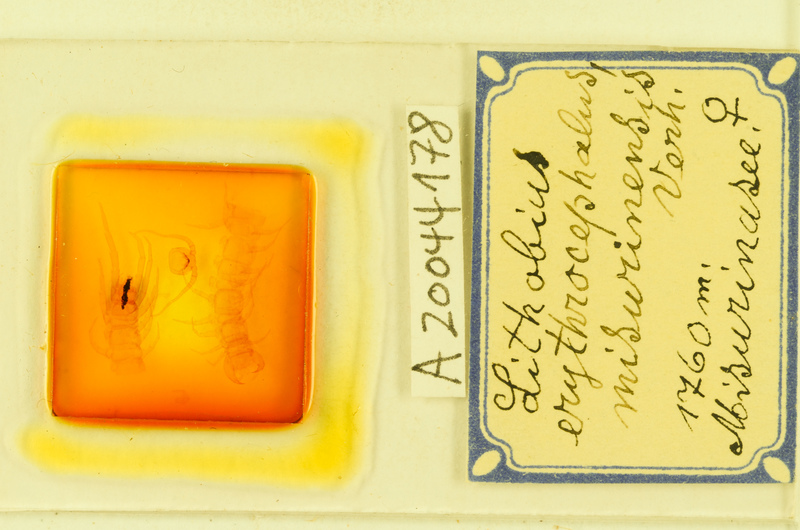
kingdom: Animalia
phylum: Arthropoda
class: Chilopoda
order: Lithobiomorpha
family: Lithobiidae
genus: Lithobius
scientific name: Lithobius erythrocephalus
